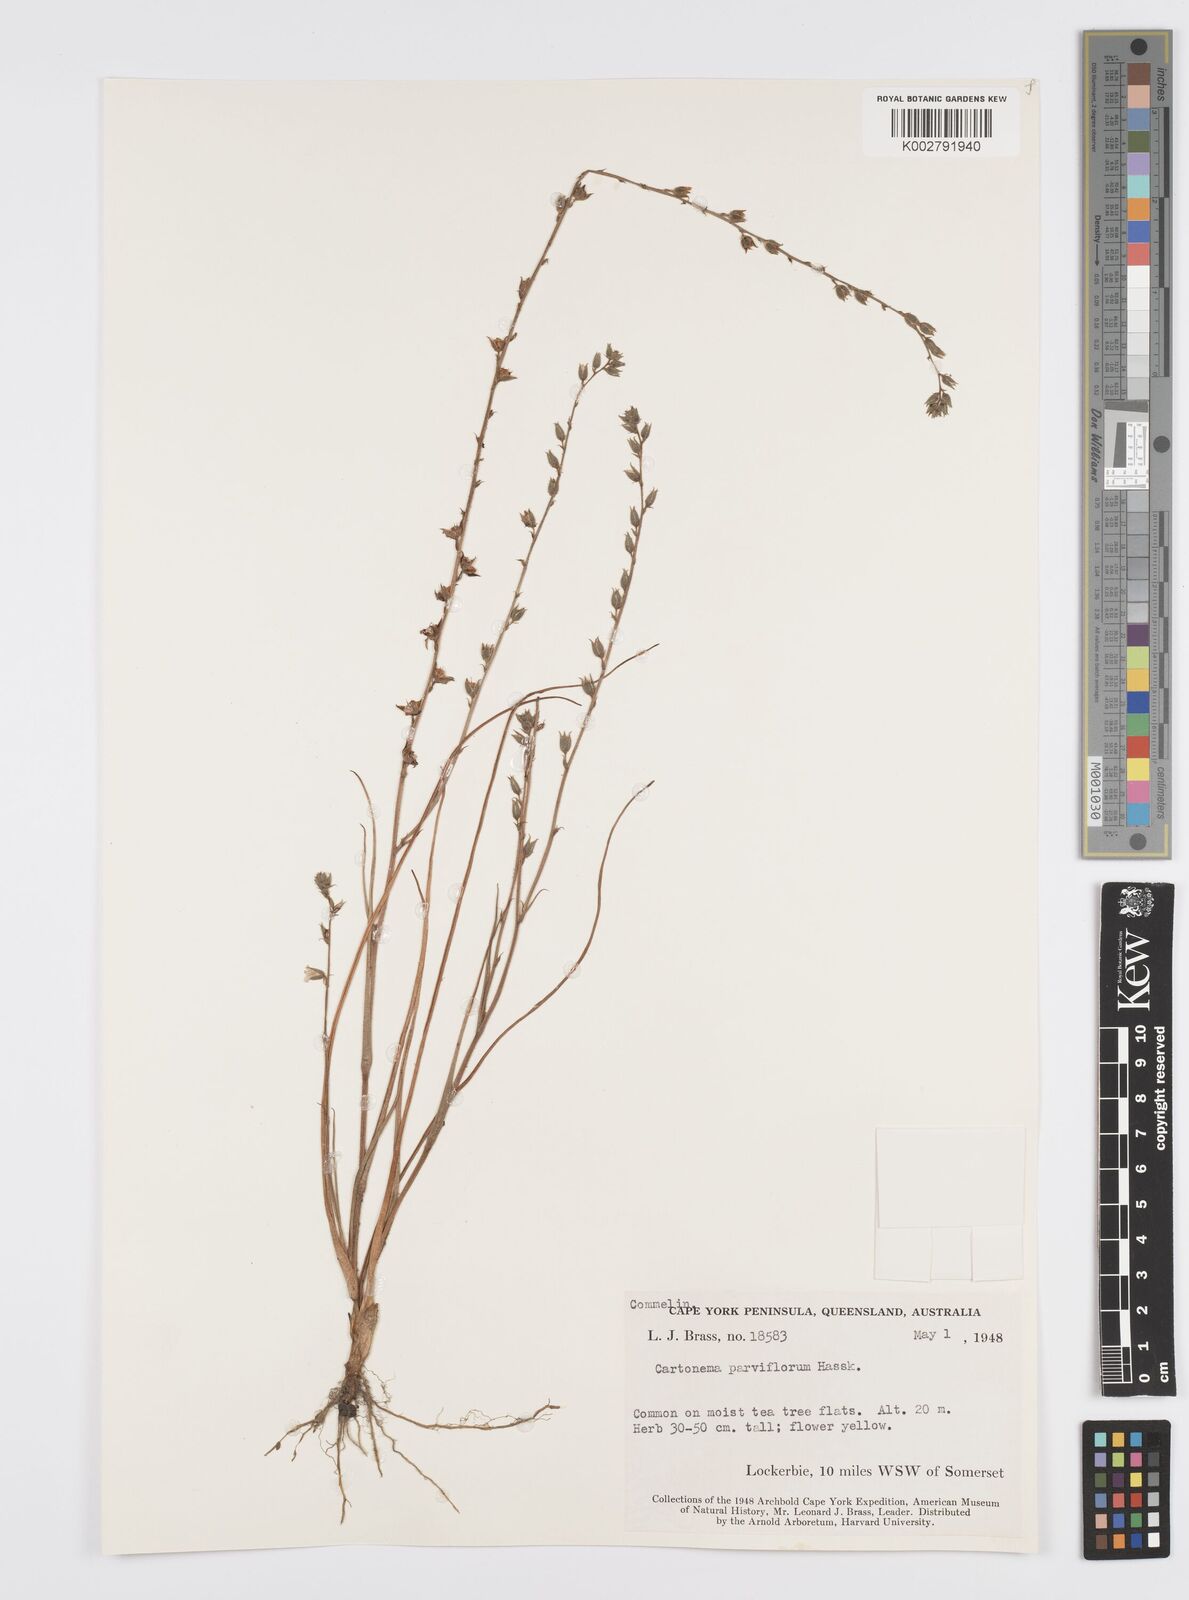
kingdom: Plantae
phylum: Tracheophyta
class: Liliopsida
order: Commelinales
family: Commelinaceae
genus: Cartonema
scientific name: Cartonema parviflorum
